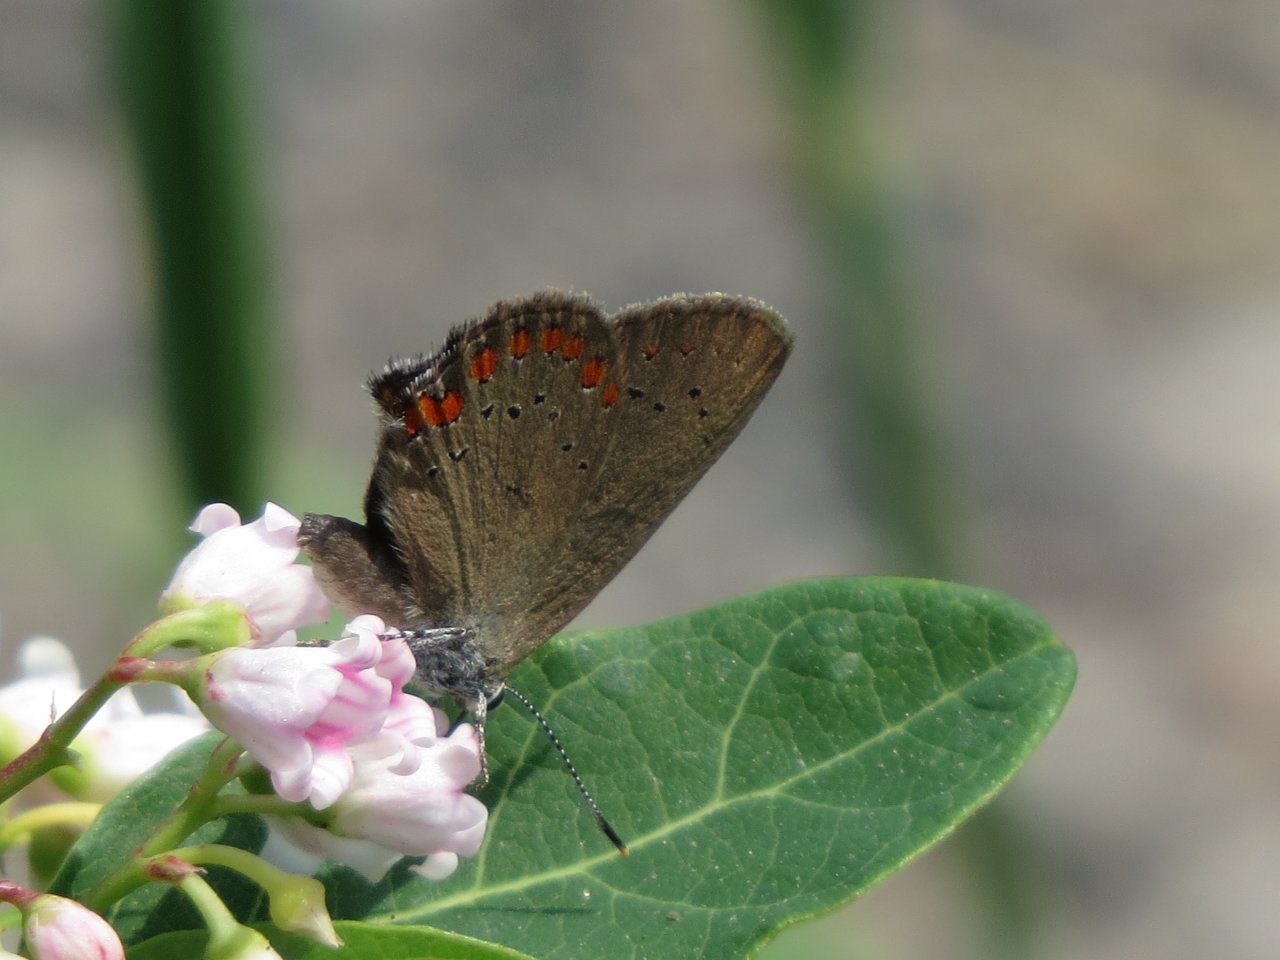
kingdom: Animalia
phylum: Arthropoda
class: Insecta
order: Lepidoptera
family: Lycaenidae
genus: Harkenclenus
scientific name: Harkenclenus titus
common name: Coral Hairstreak
